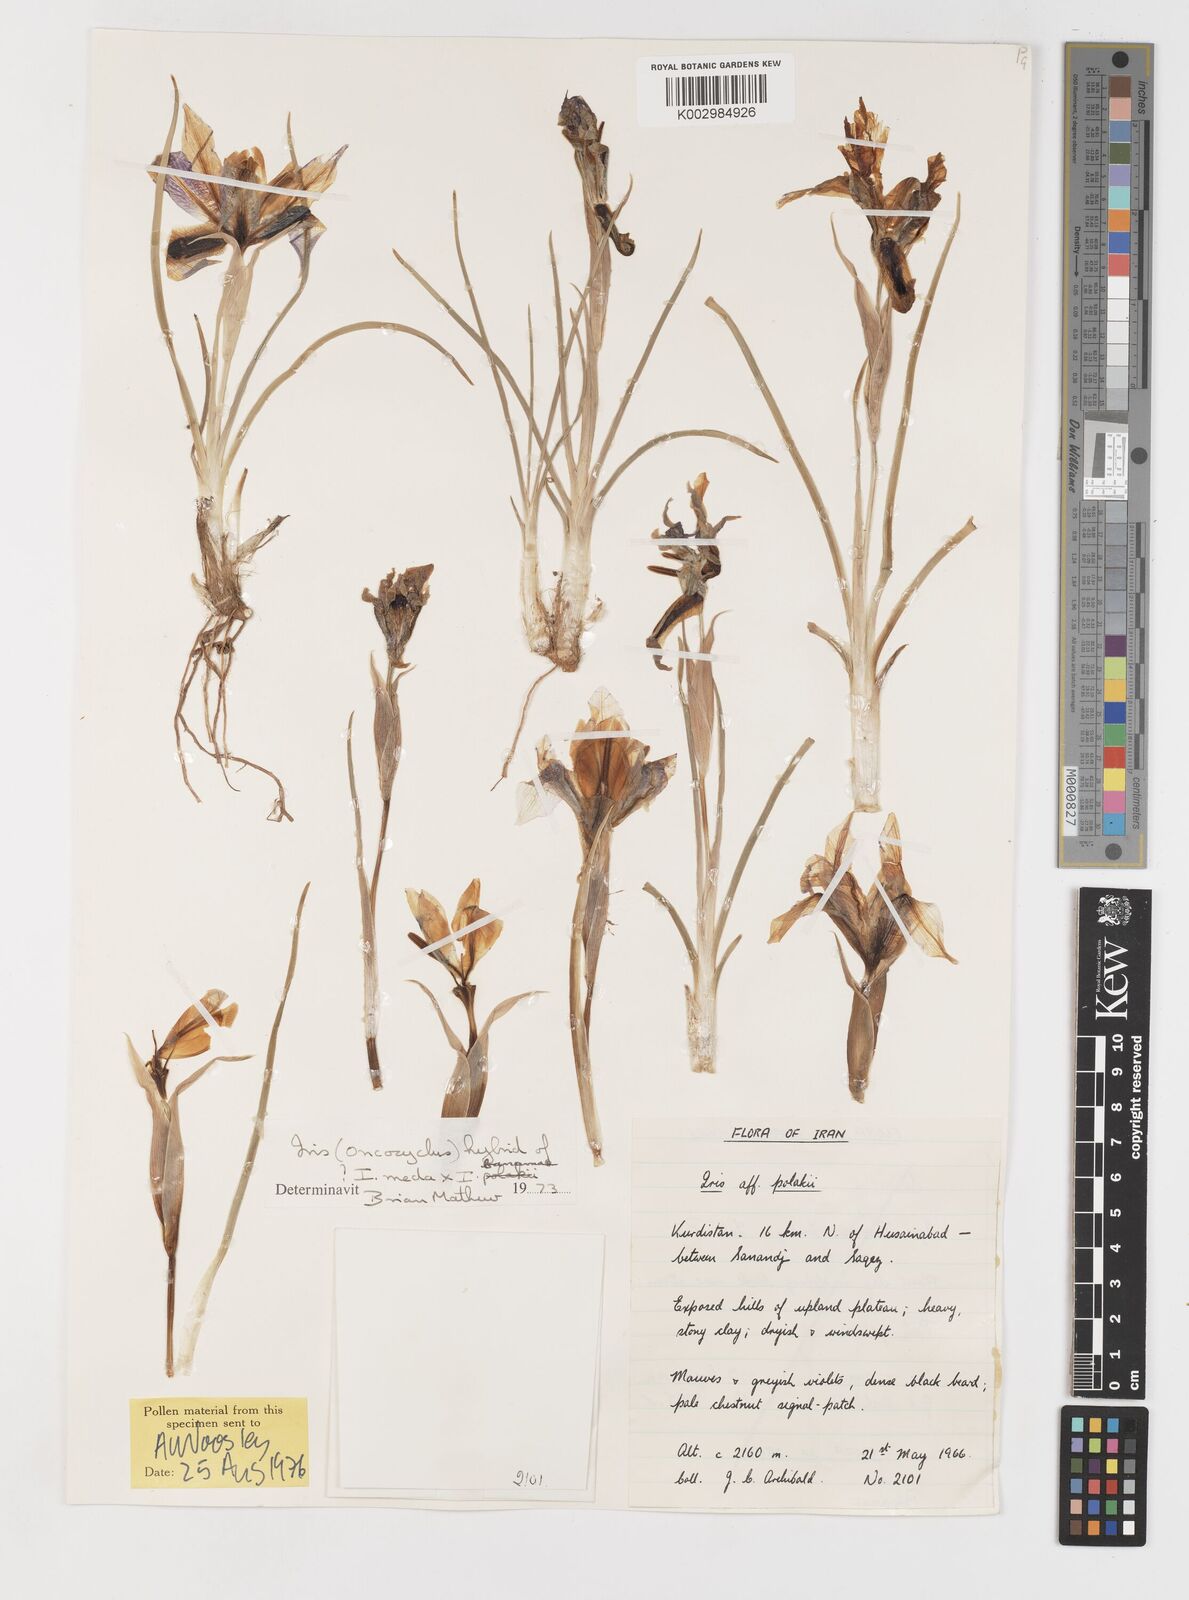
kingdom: Plantae
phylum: Tracheophyta
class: Liliopsida
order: Asparagales
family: Iridaceae
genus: Iris
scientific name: Iris meda
